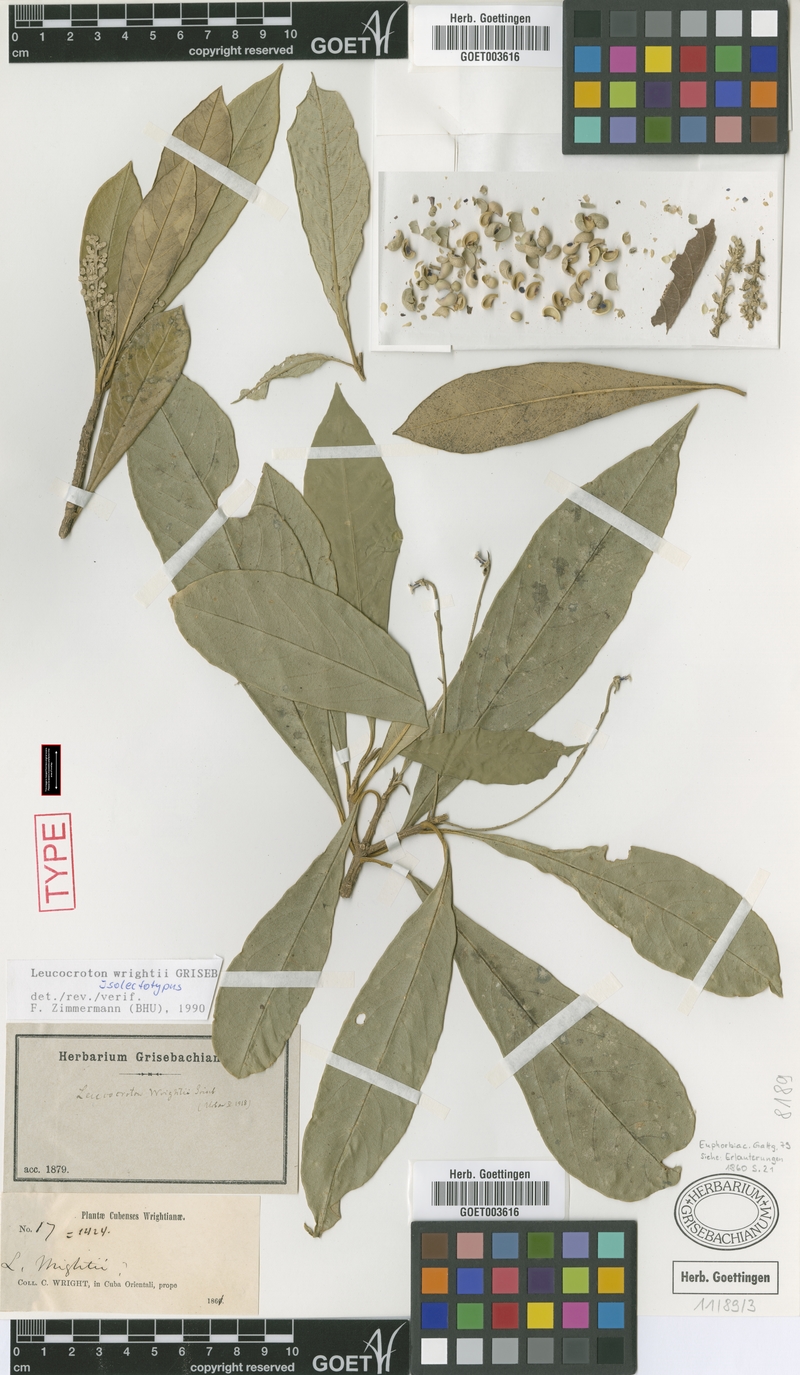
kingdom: Plantae
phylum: Tracheophyta
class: Magnoliopsida
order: Malpighiales
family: Euphorbiaceae
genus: Leucocroton
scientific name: Leucocroton wrightii
